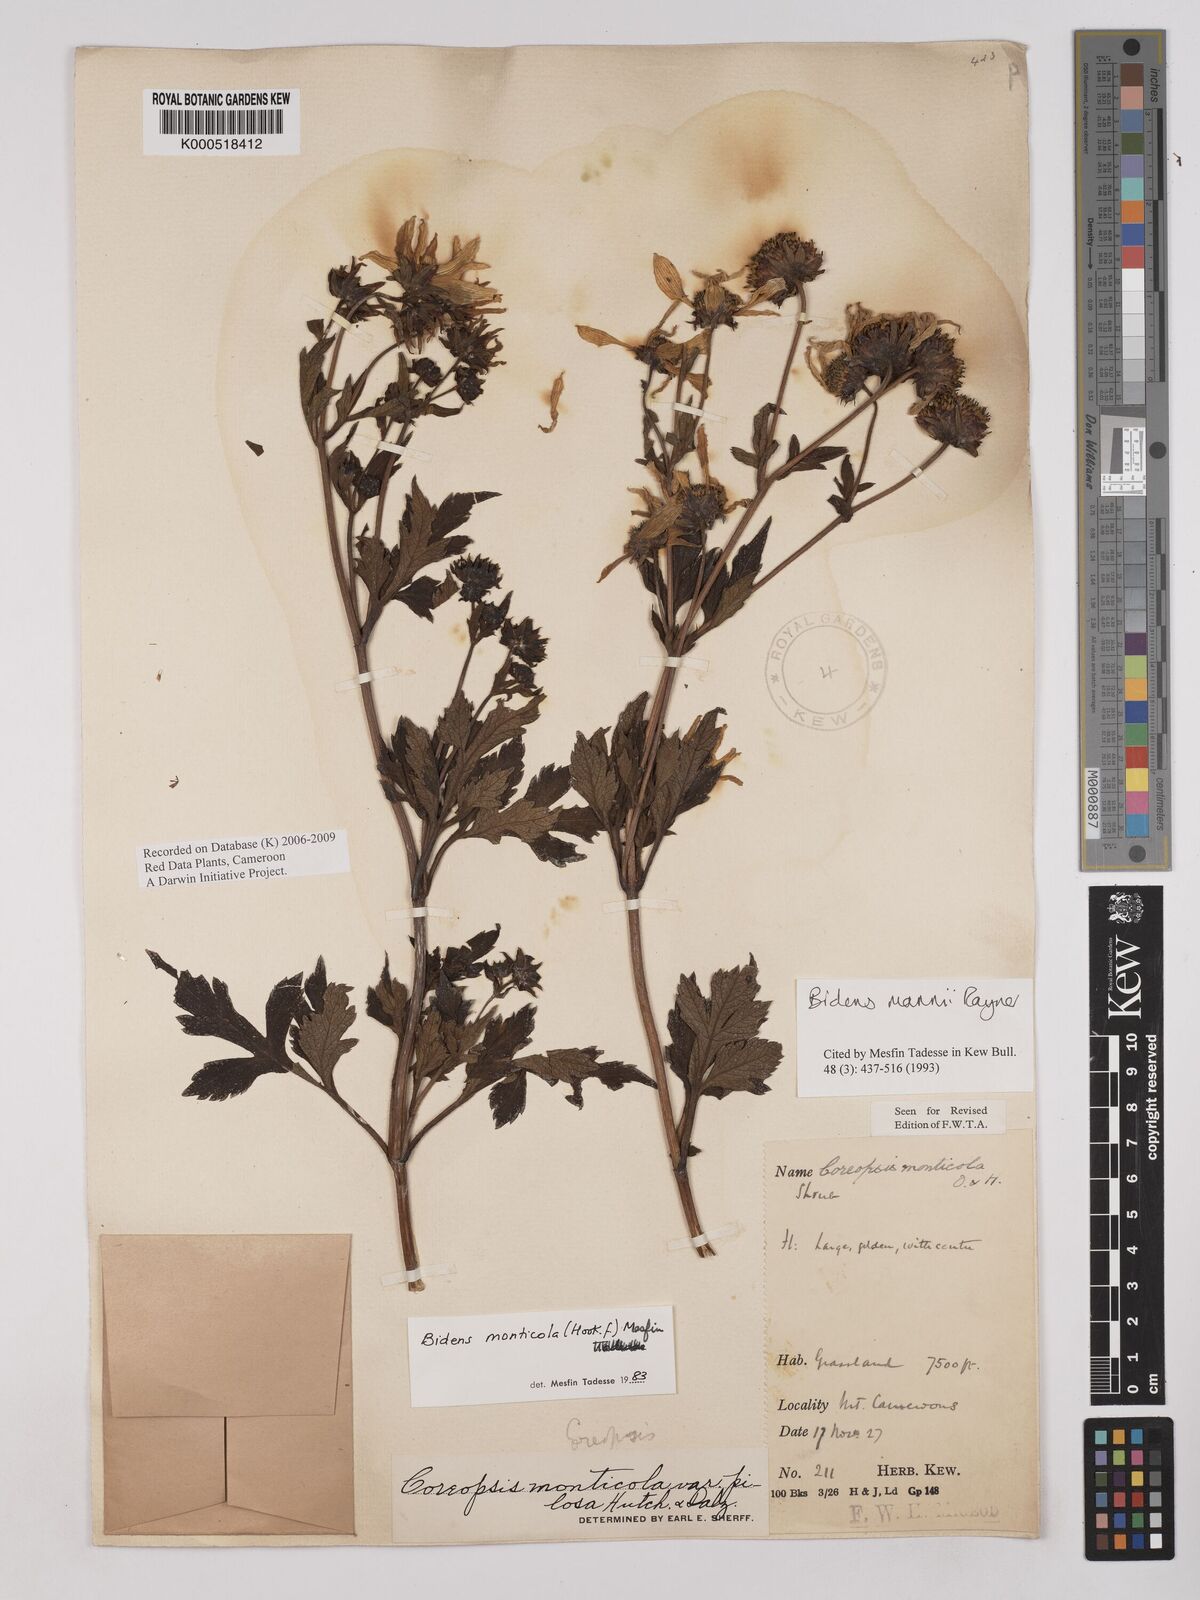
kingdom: Plantae
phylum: Tracheophyta
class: Magnoliopsida
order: Asterales
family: Asteraceae
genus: Bidens
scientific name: Bidens mannii
